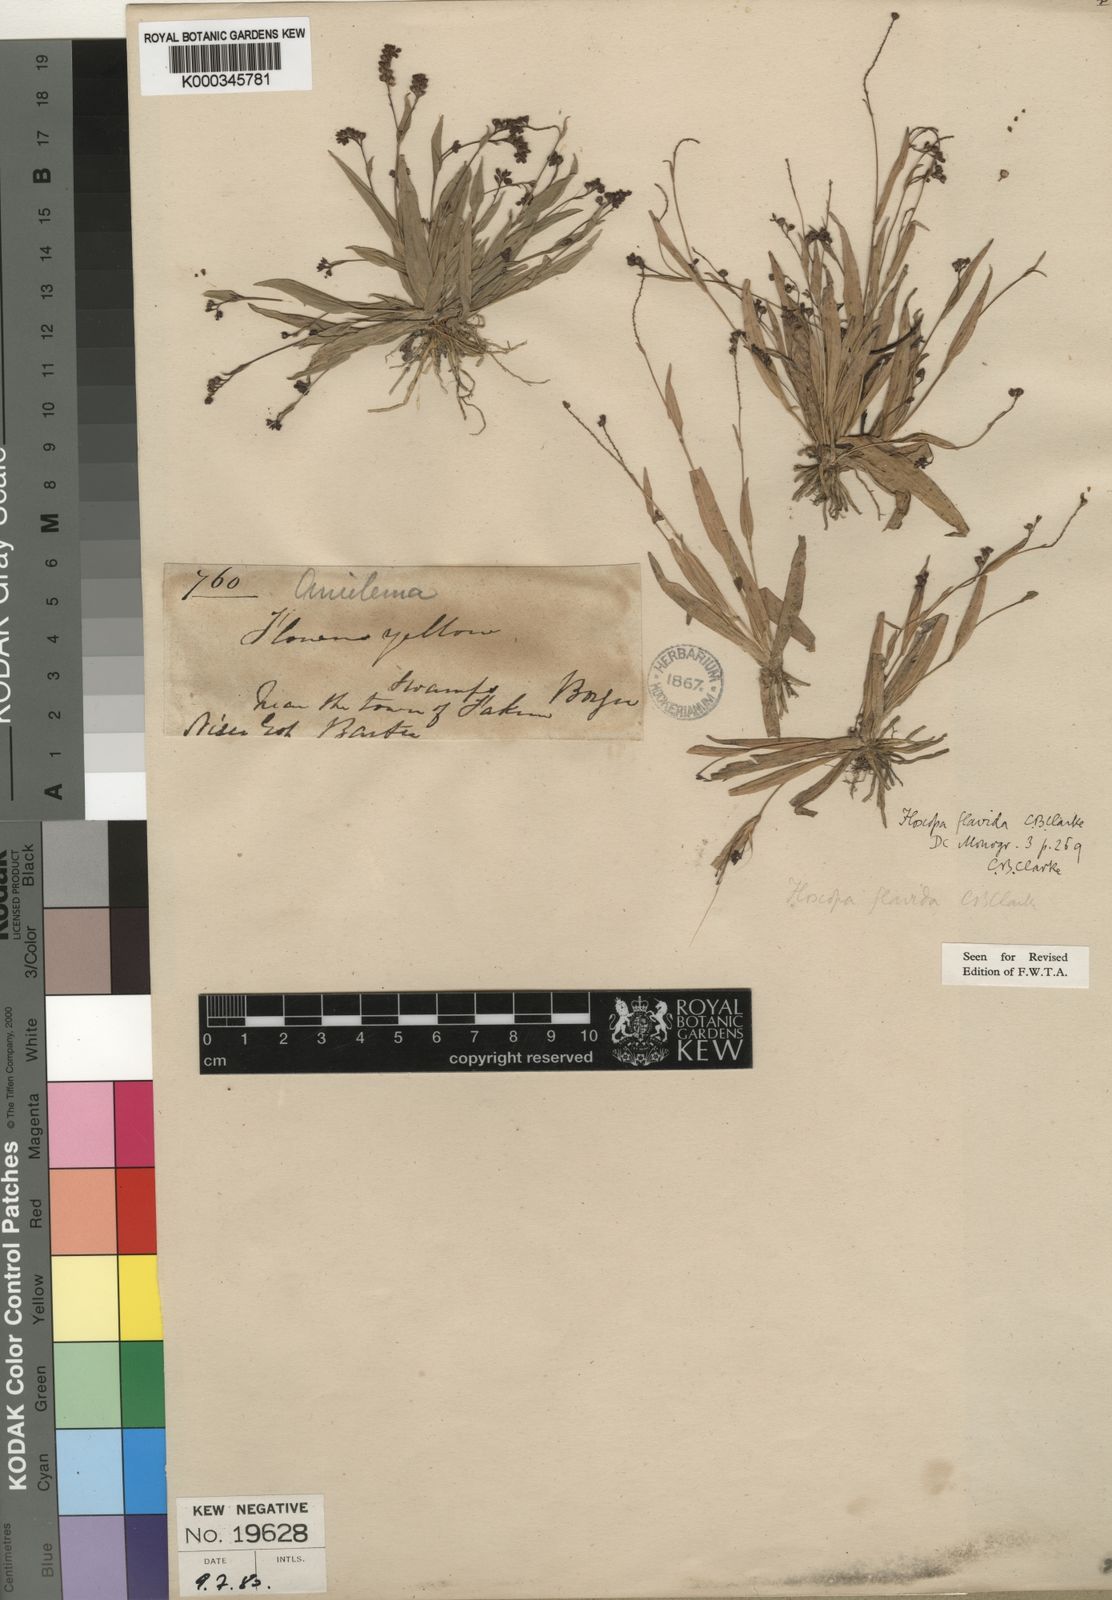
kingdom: Plantae
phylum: Tracheophyta
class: Liliopsida
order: Commelinales
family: Commelinaceae
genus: Floscopa
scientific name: Floscopa flavida
